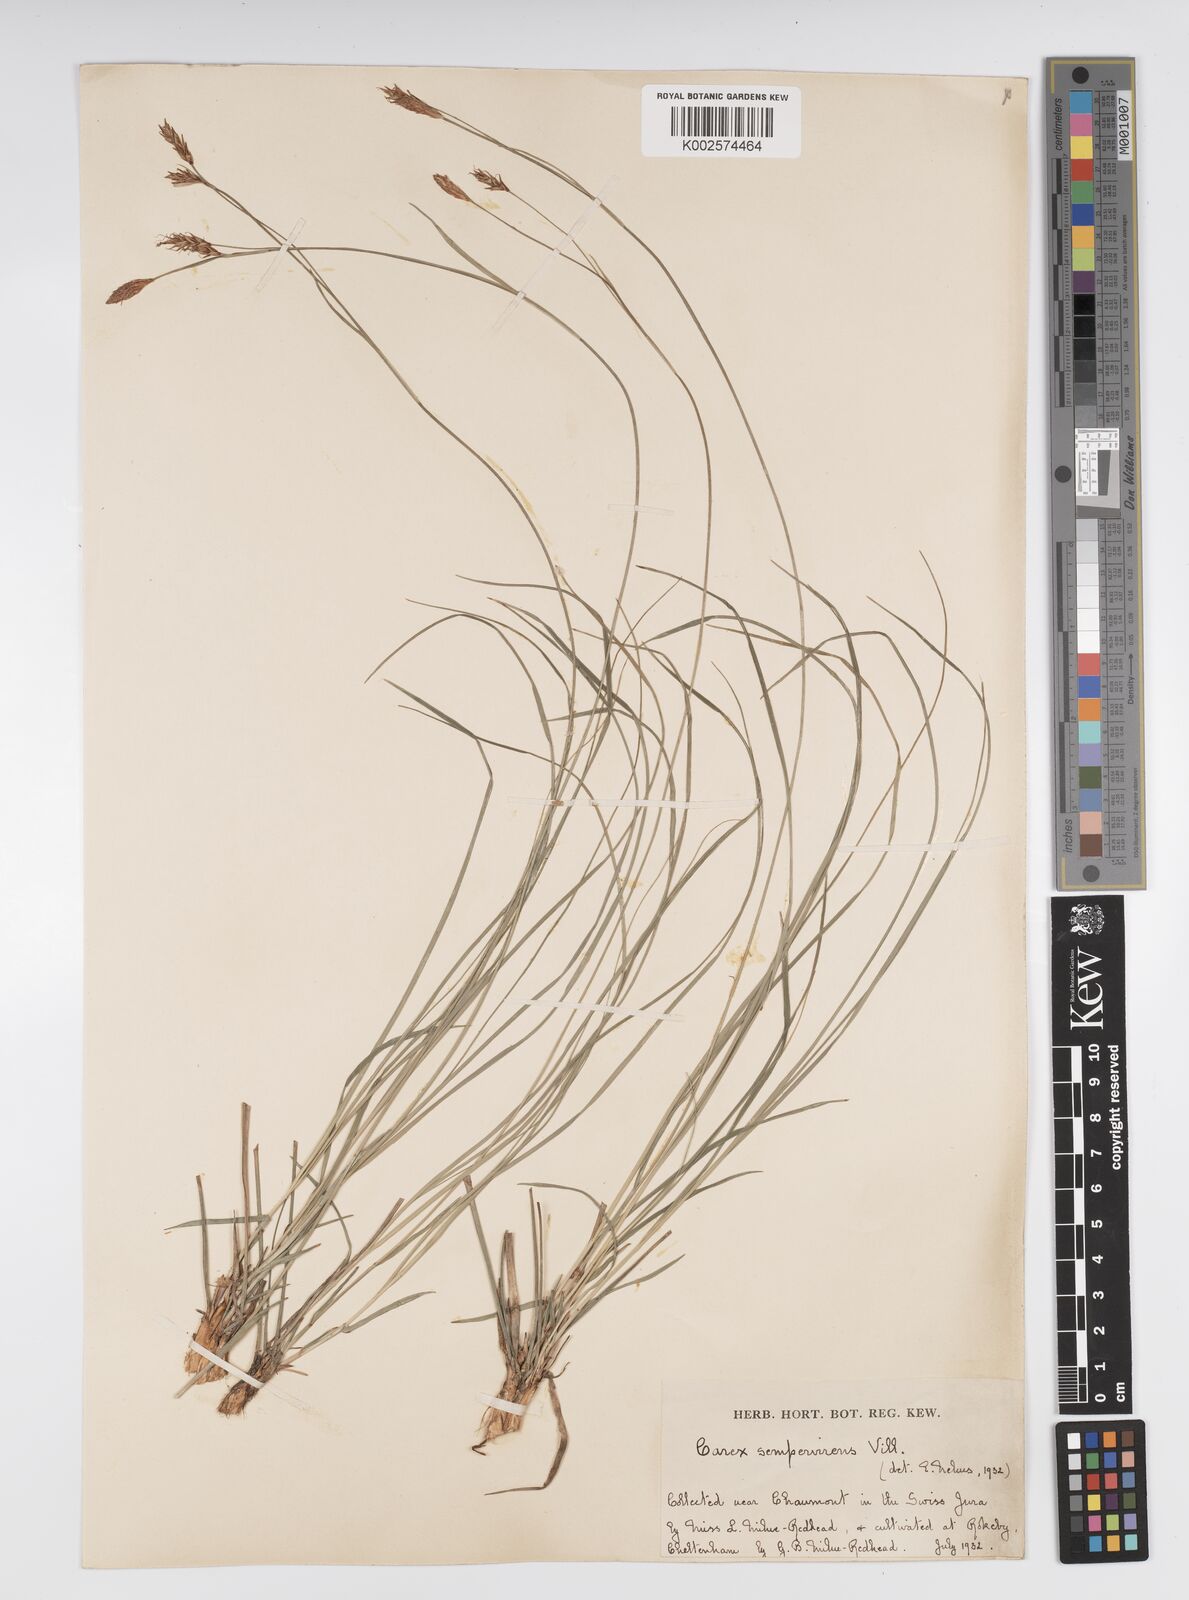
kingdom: Plantae
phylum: Tracheophyta
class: Liliopsida
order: Poales
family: Cyperaceae
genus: Carex
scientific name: Carex sempervirens
